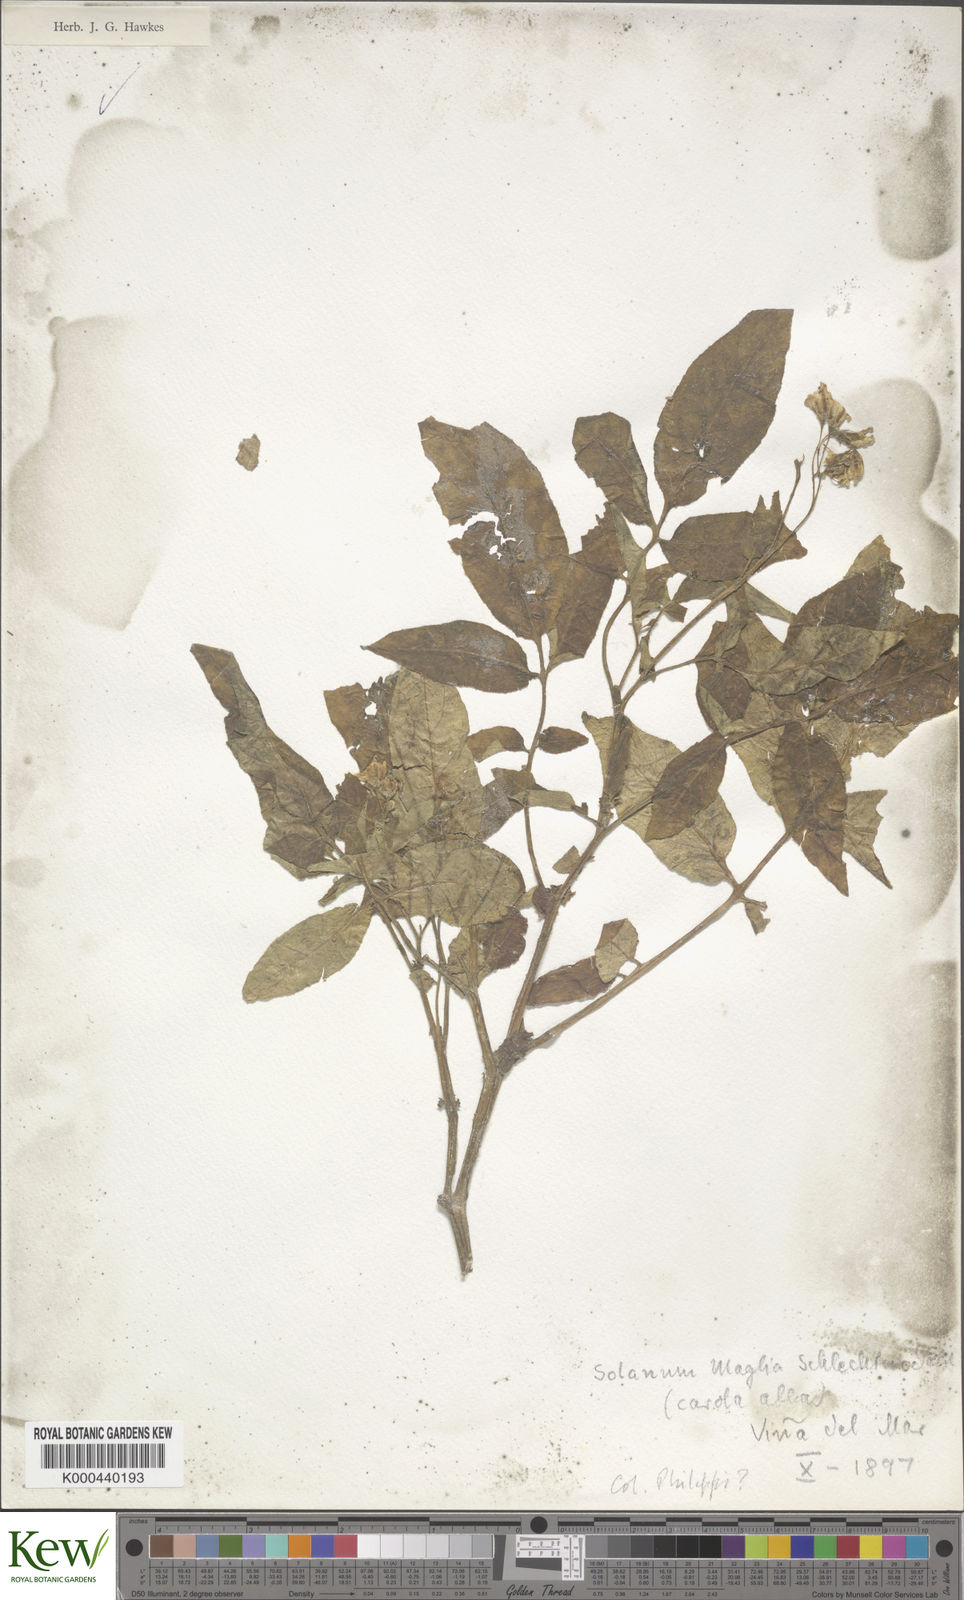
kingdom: Plantae
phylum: Tracheophyta
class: Magnoliopsida
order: Solanales
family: Solanaceae
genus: Solanum
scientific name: Solanum maglia
